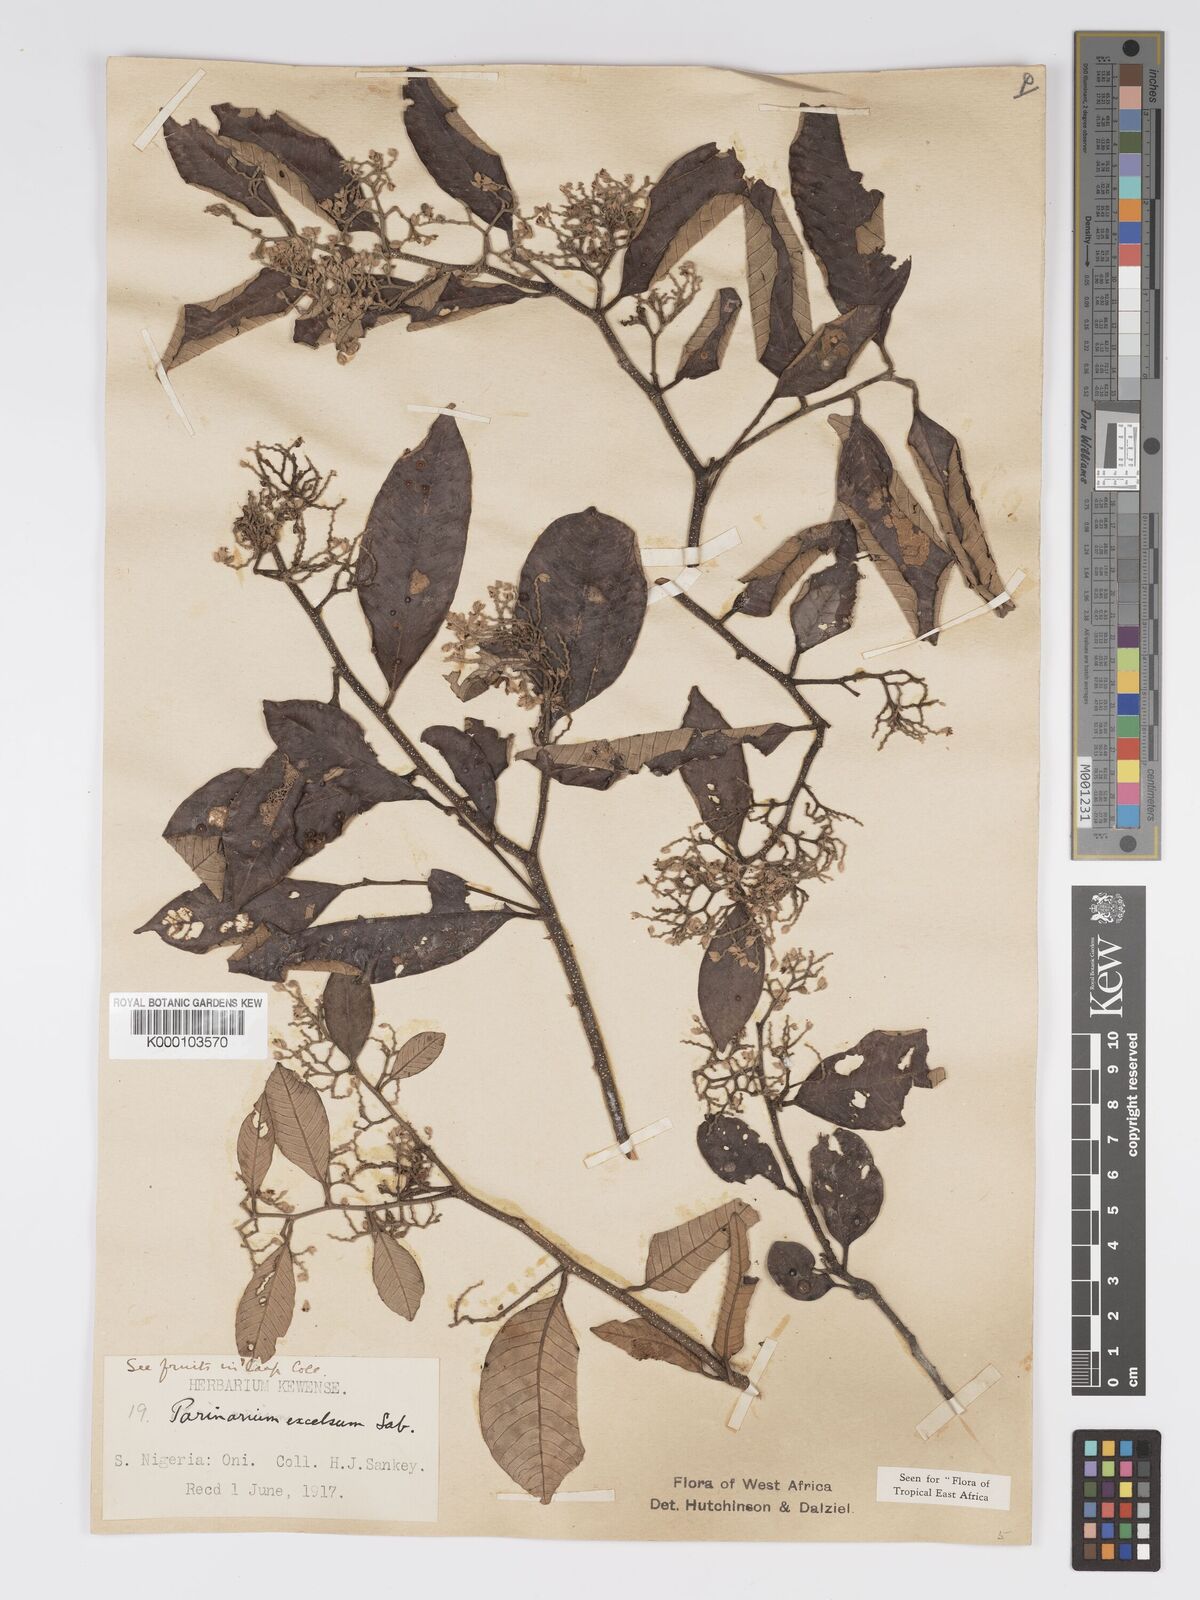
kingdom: Plantae
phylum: Tracheophyta
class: Magnoliopsida
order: Malpighiales
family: Chrysobalanaceae
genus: Parinari
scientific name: Parinari excelsa
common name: Guinea-plum
